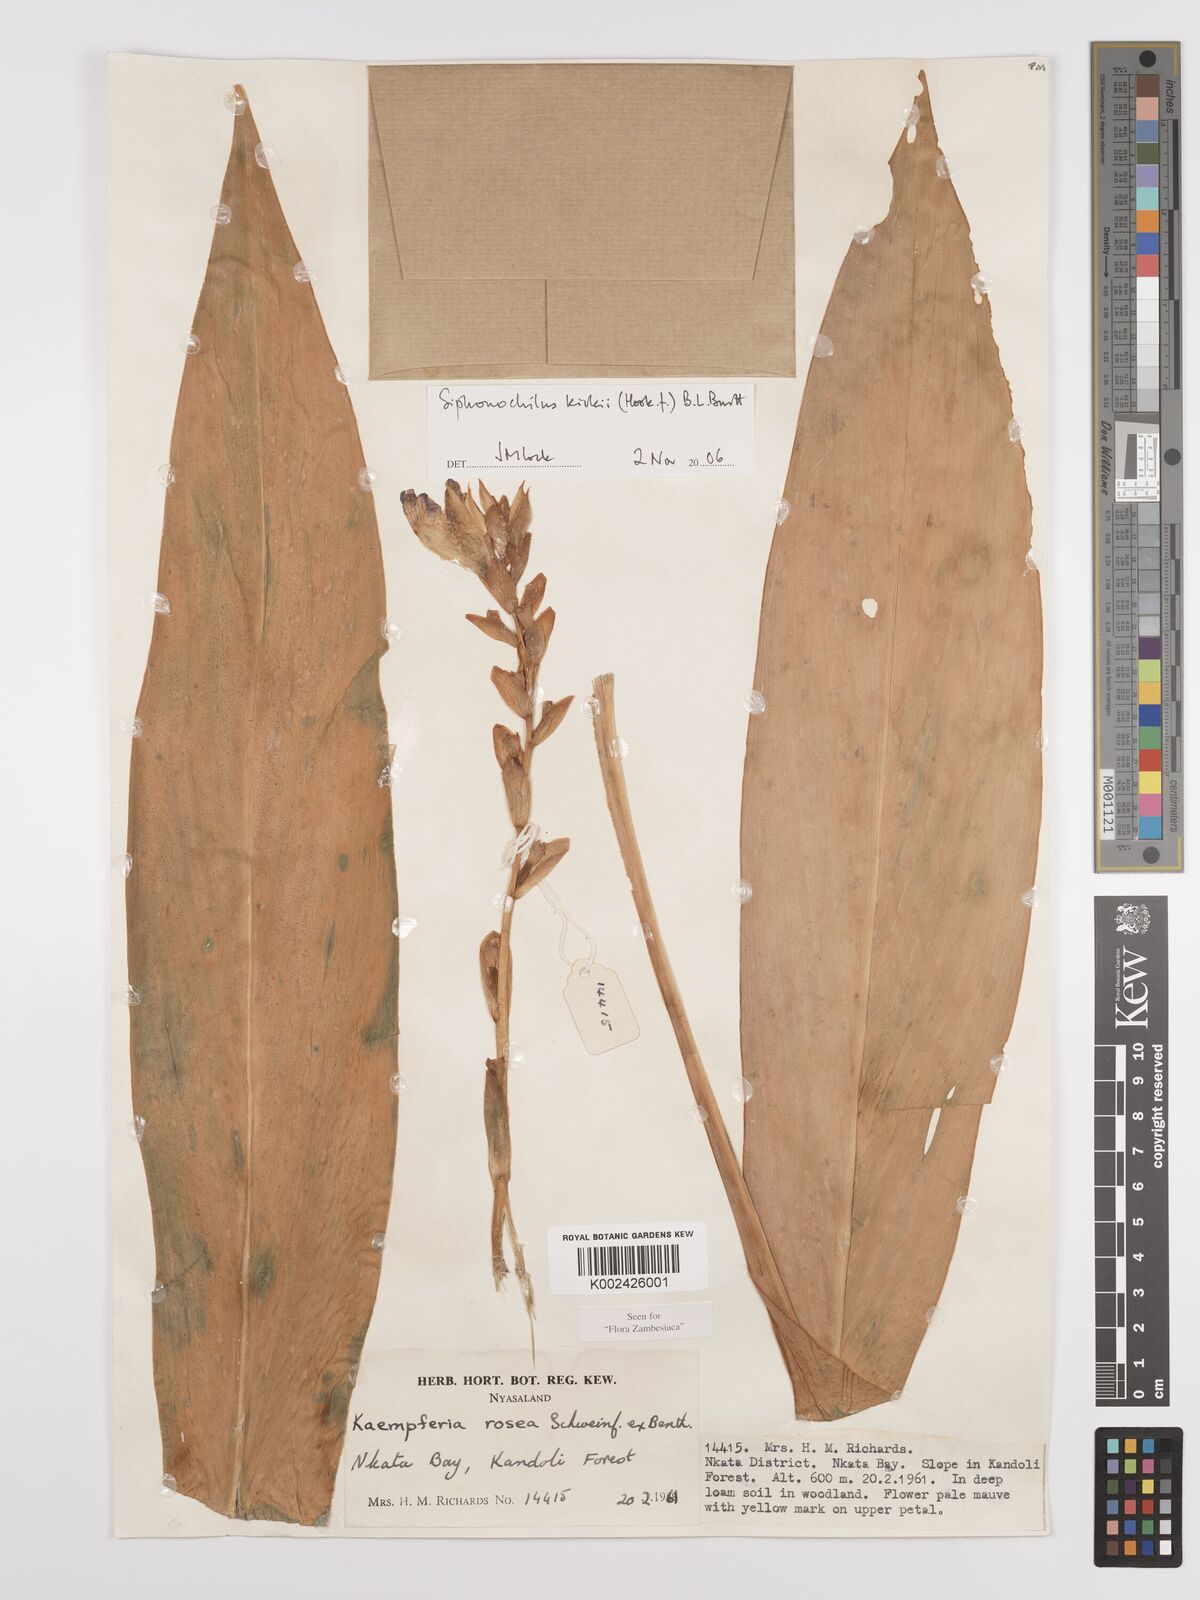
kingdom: Plantae
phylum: Tracheophyta
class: Liliopsida
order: Zingiberales
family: Zingiberaceae
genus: Siphonochilus
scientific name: Siphonochilus kirkii
